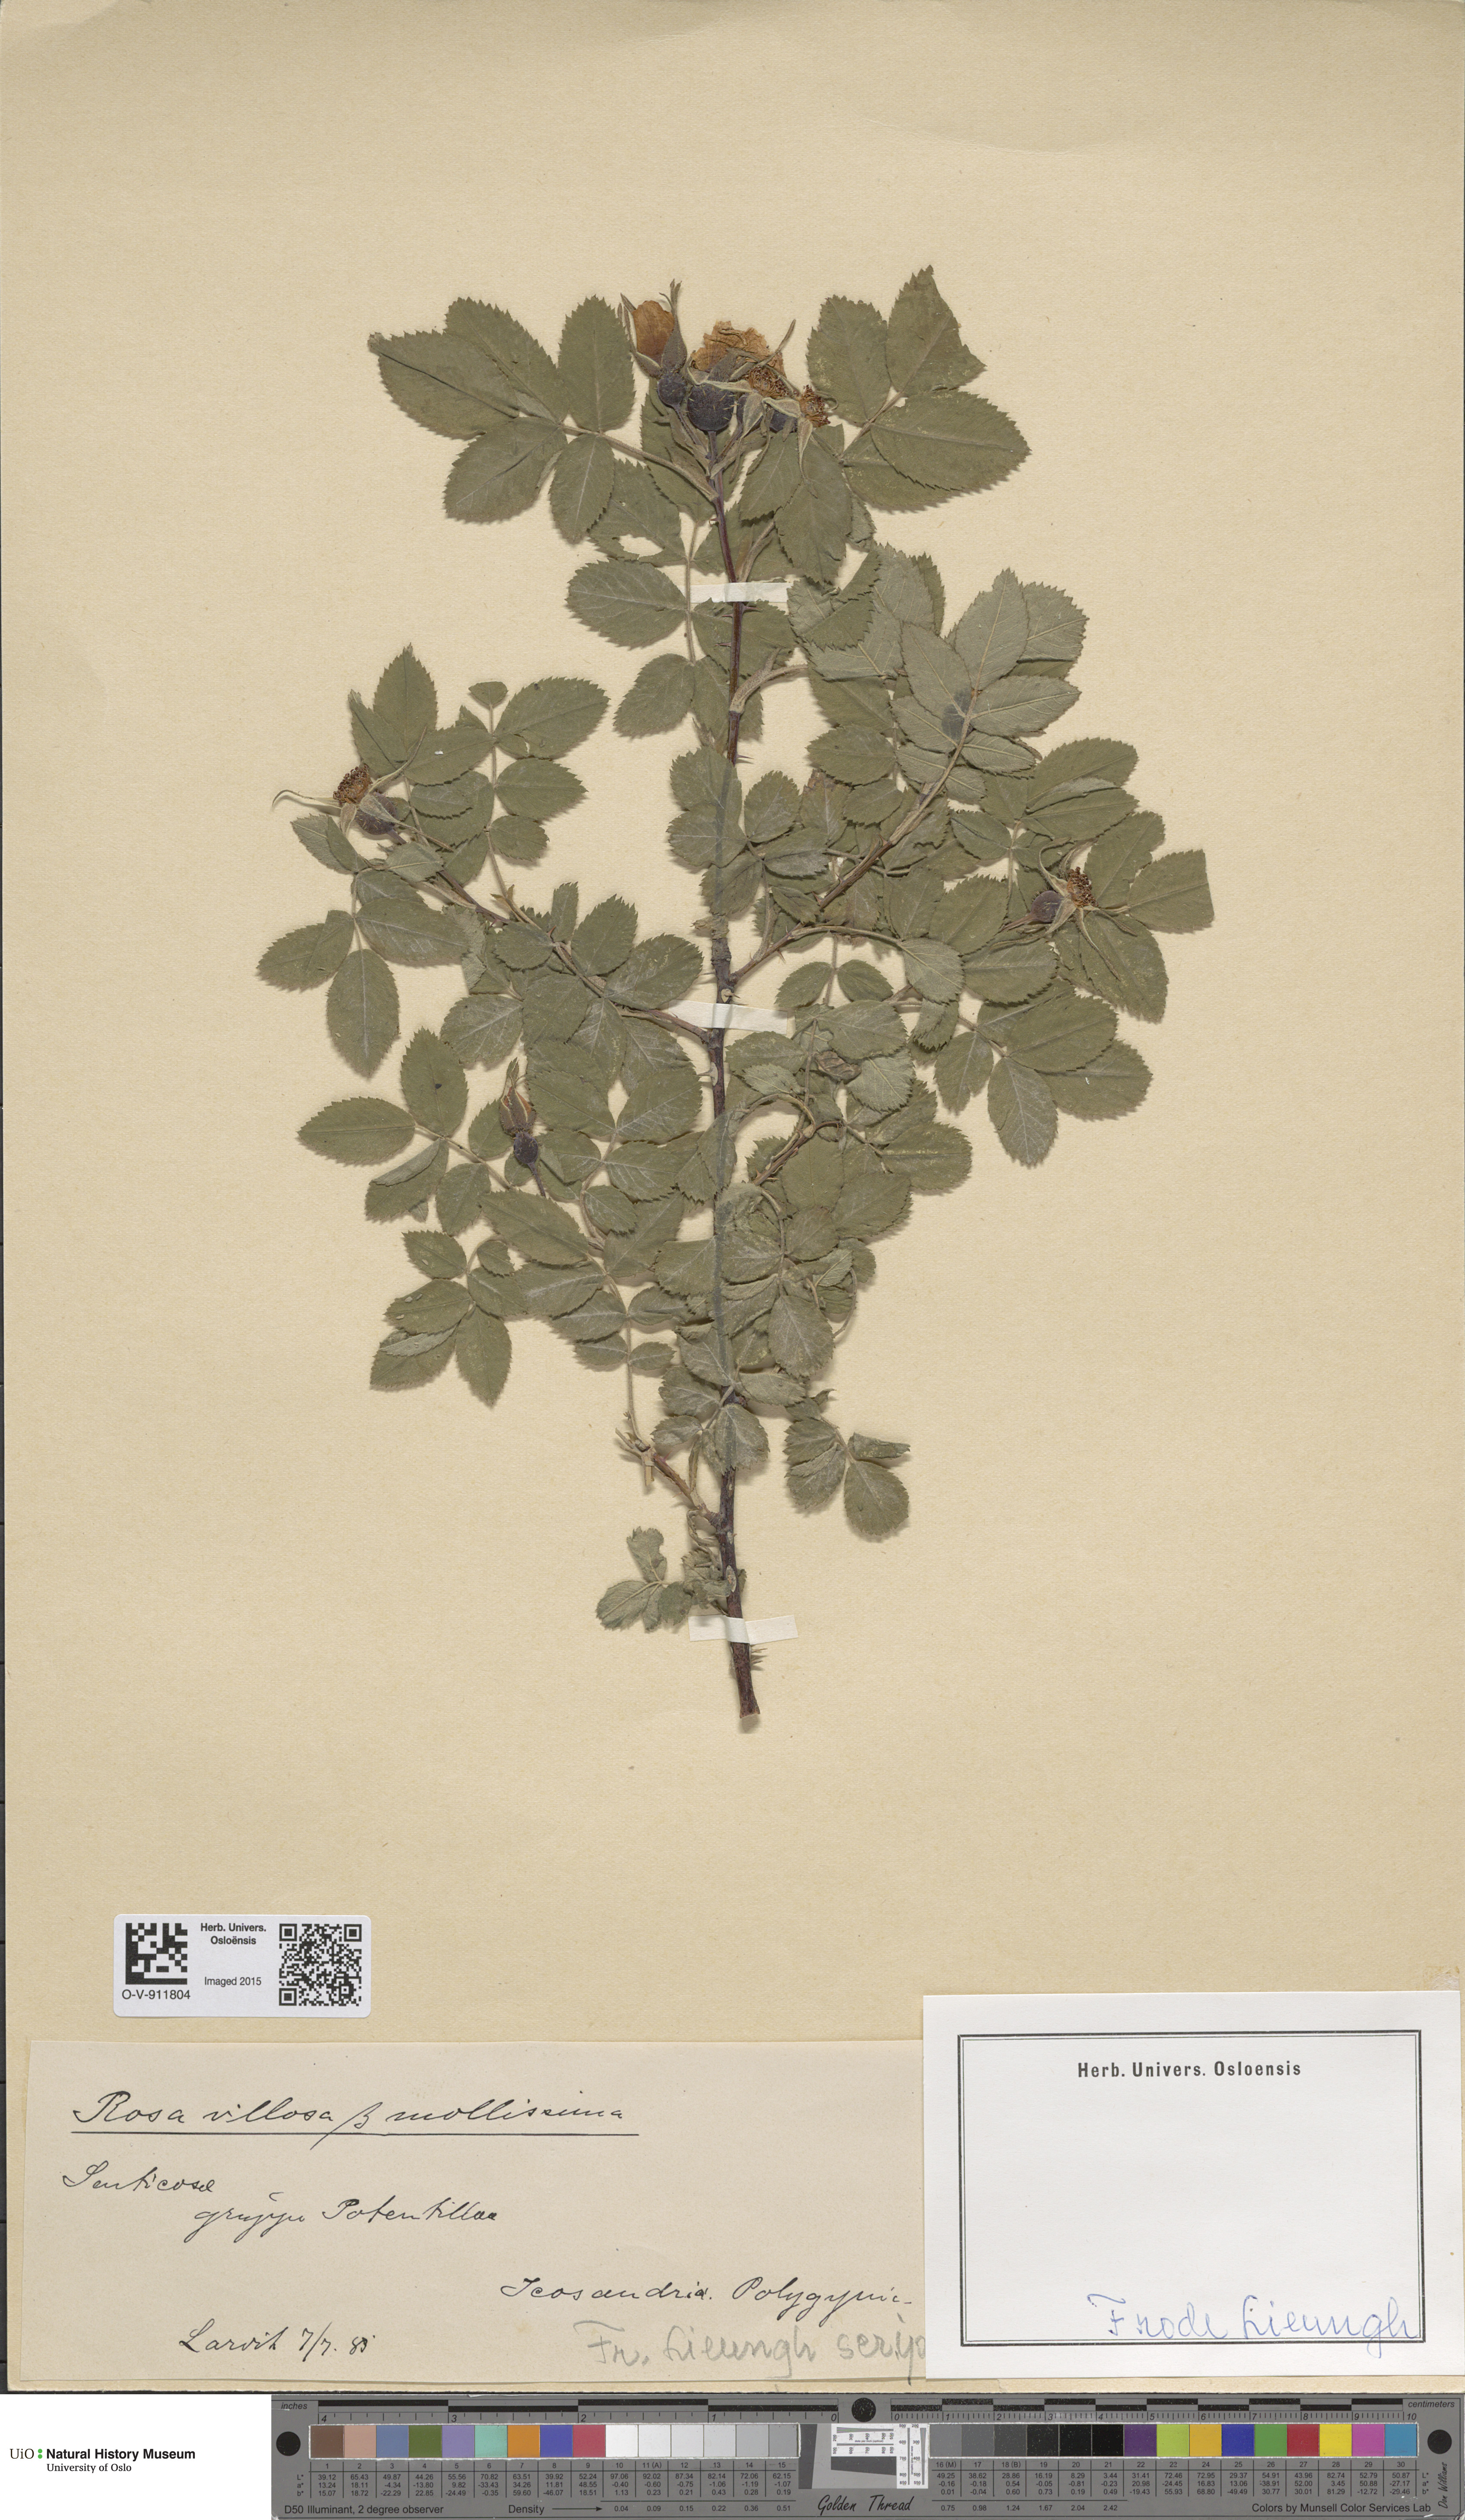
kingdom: Plantae
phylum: Tracheophyta
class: Magnoliopsida
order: Rosales
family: Rosaceae
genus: Rosa
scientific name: Rosa villosa
